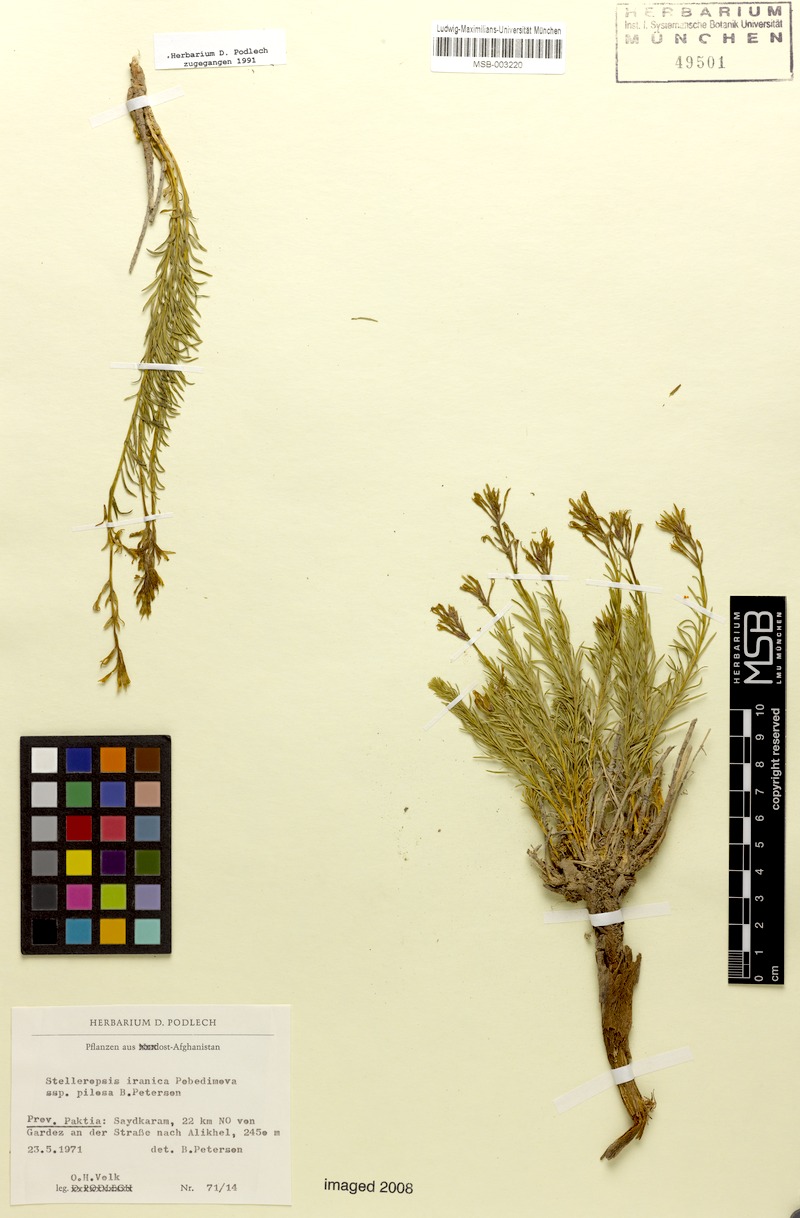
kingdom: Plantae
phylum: Tracheophyta
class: Magnoliopsida
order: Malvales
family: Thymelaeaceae
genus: Diarthron
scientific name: Diarthron iranicum
